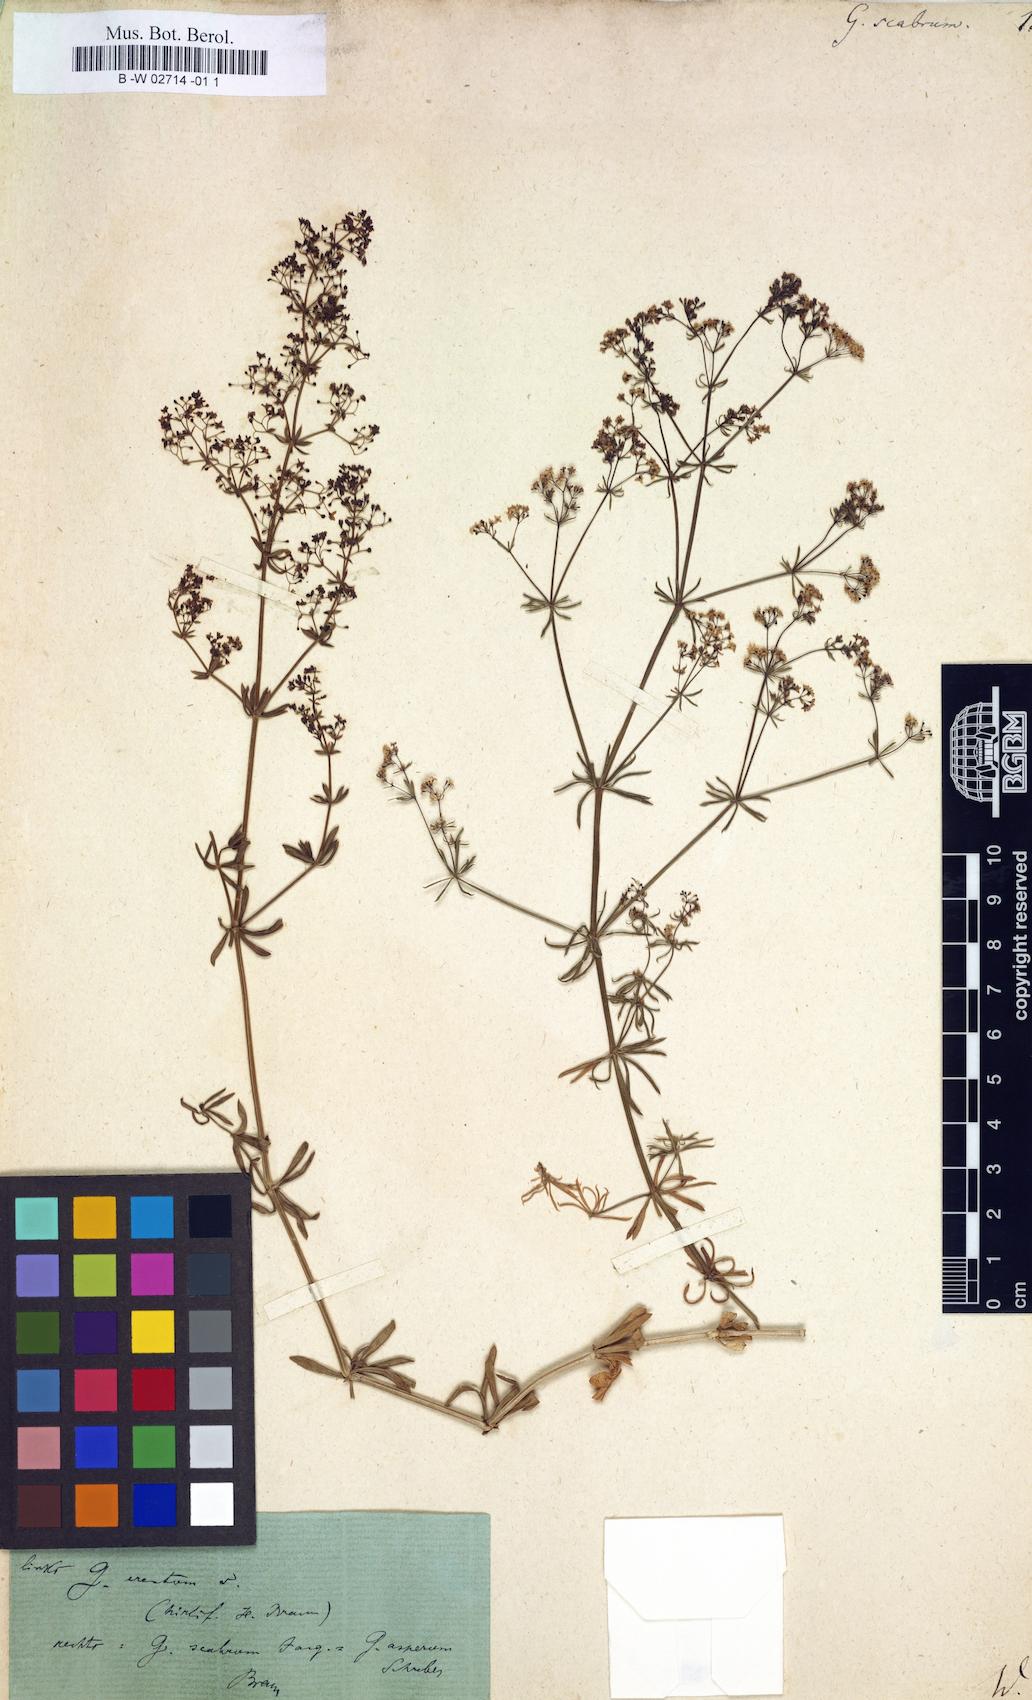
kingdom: Plantae
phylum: Tracheophyta
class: Magnoliopsida
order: Gentianales
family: Rubiaceae
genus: Galium
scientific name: Galium scabrum
